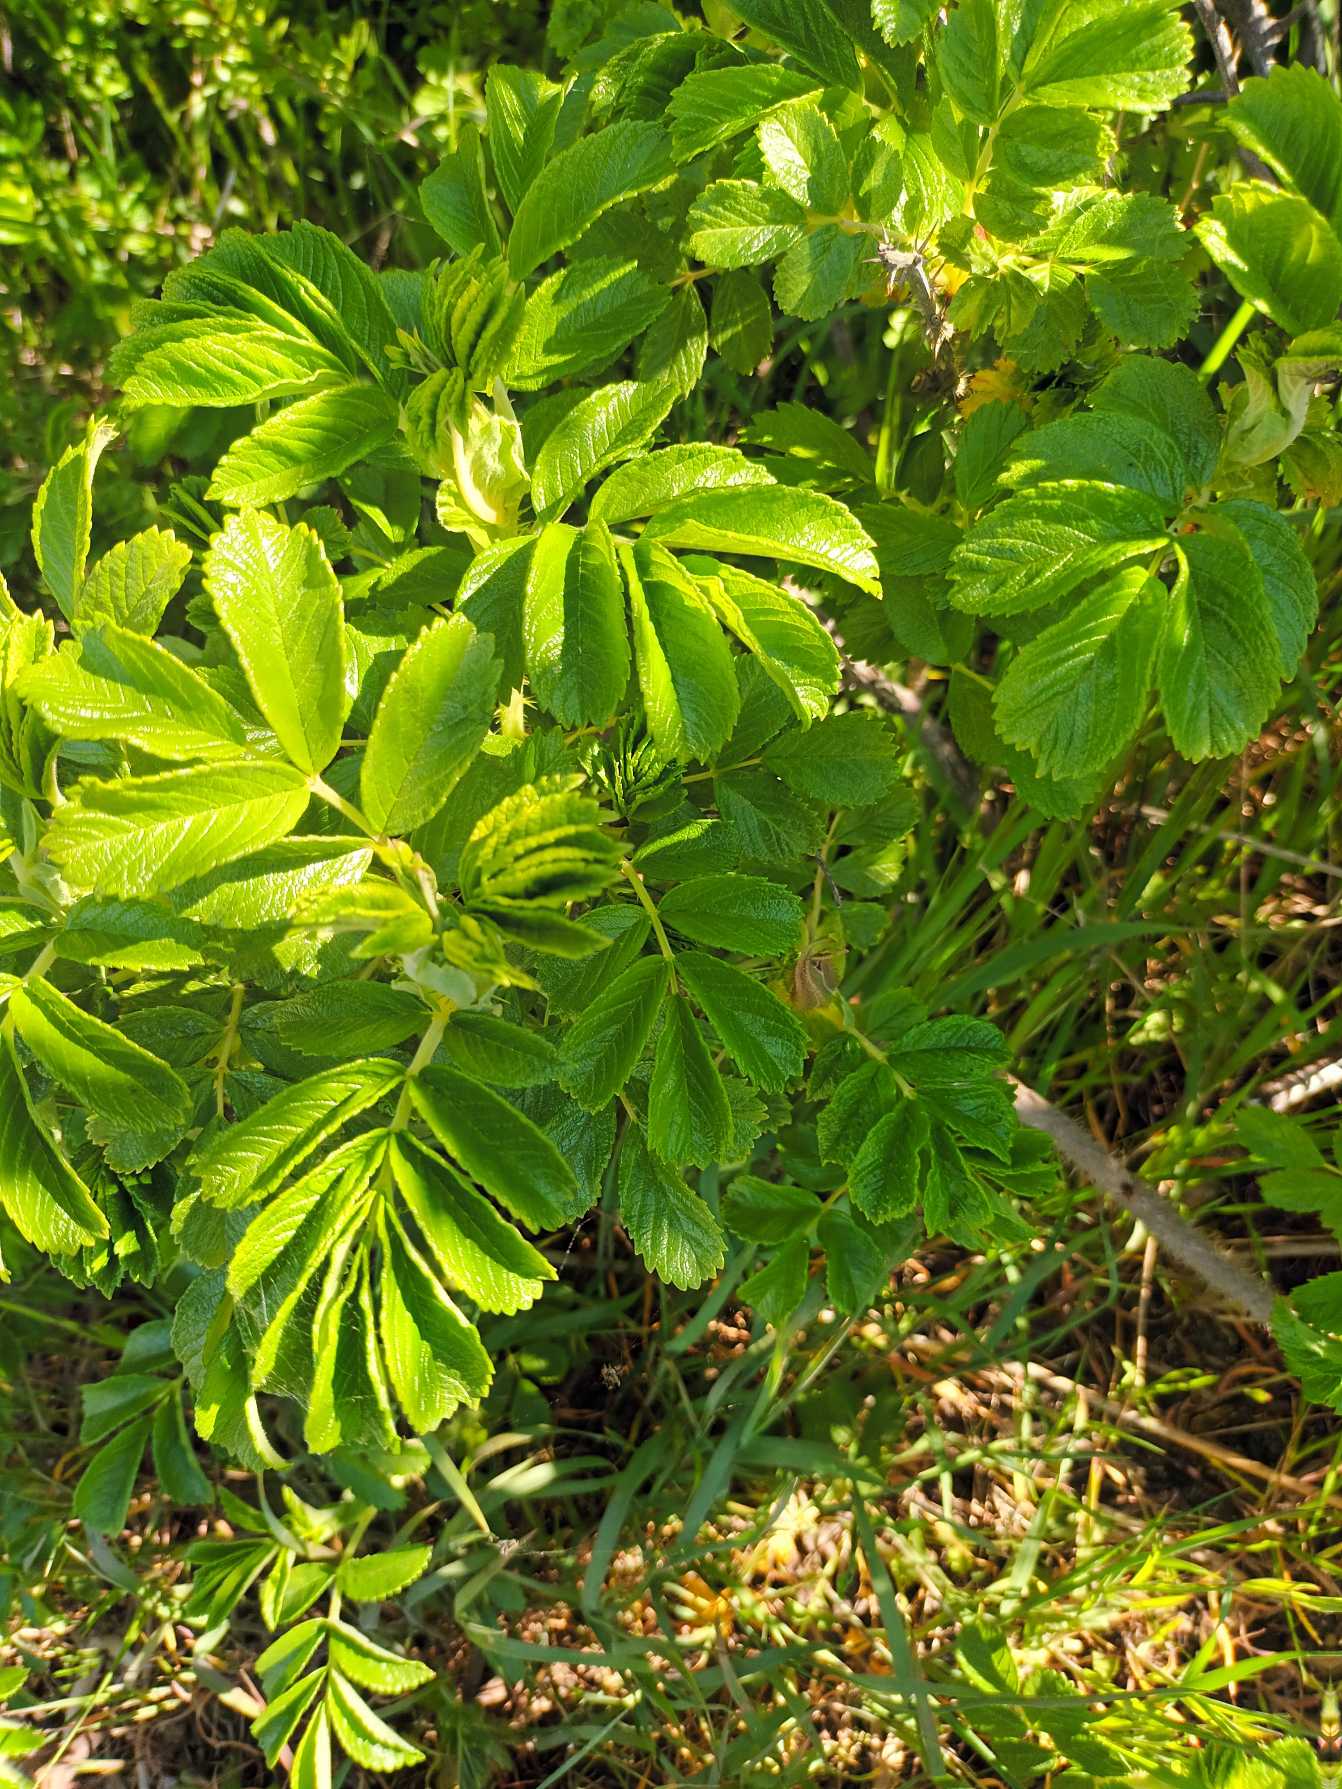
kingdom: Plantae
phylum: Tracheophyta
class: Magnoliopsida
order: Rosales
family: Rosaceae
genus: Rosa
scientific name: Rosa rugosa
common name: Rynket rose
